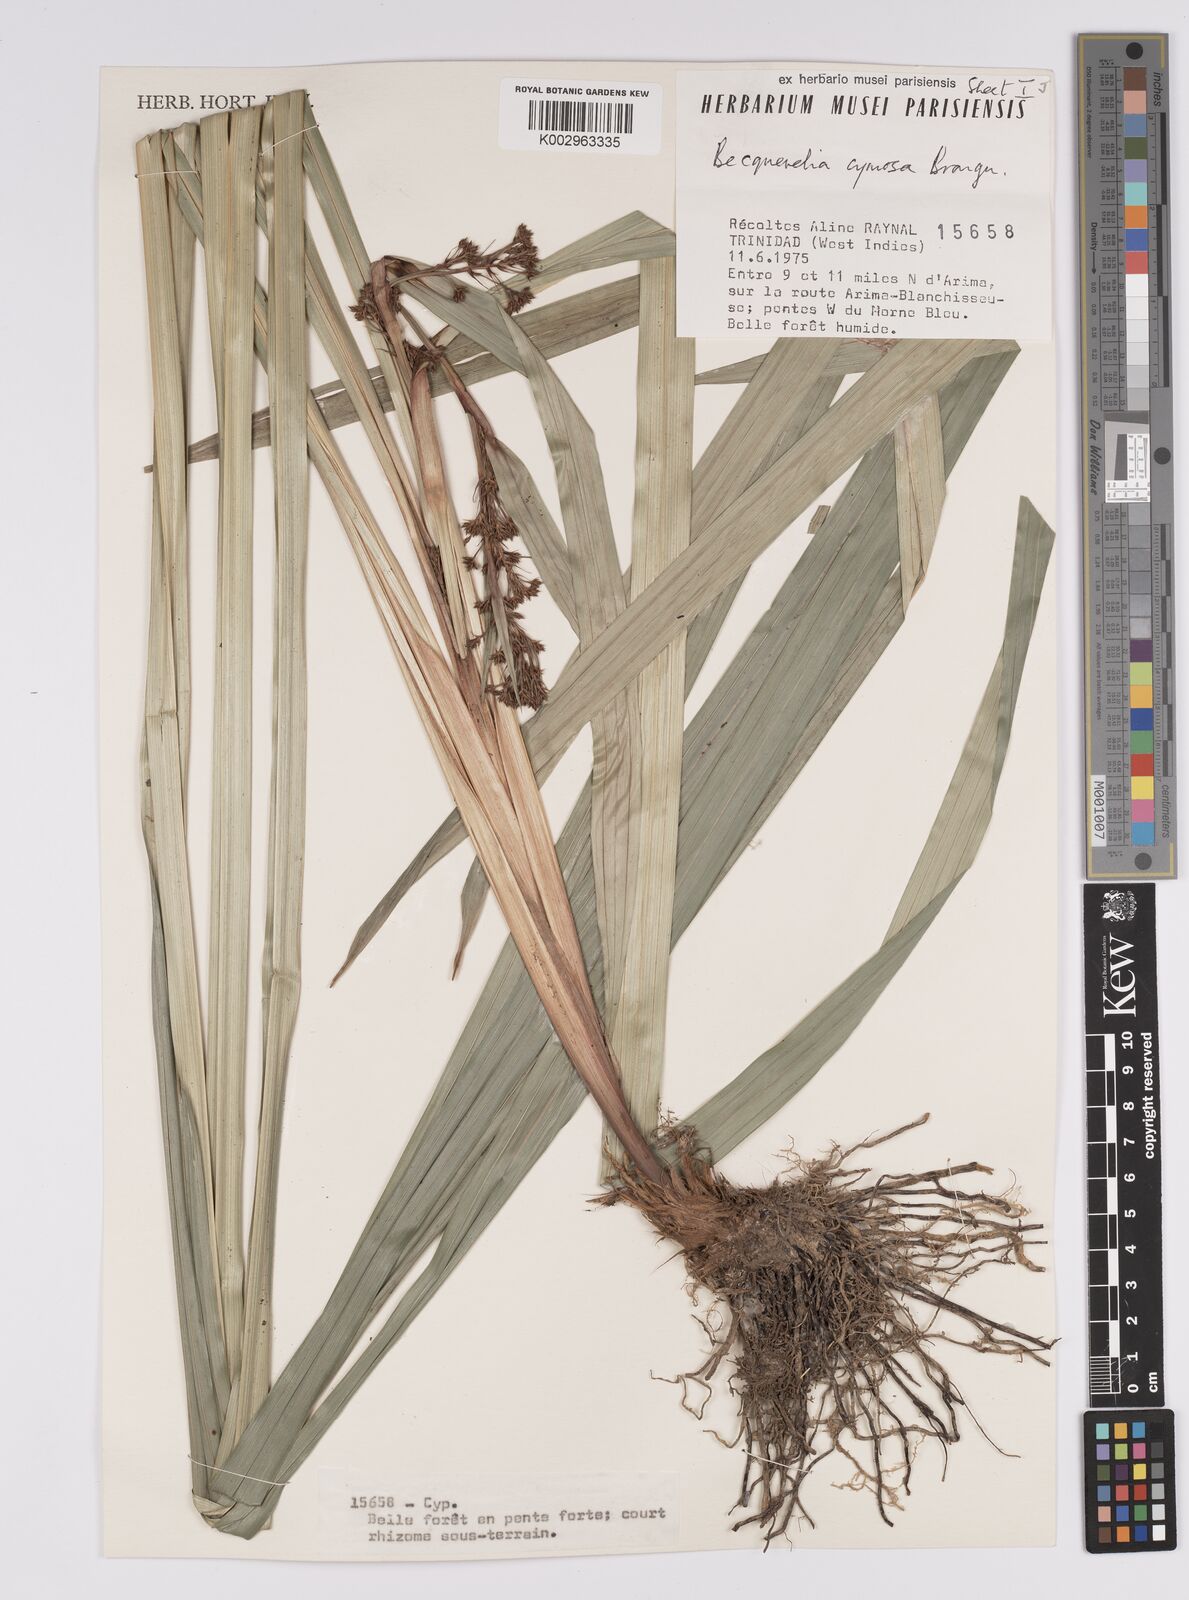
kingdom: Plantae
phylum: Tracheophyta
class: Liliopsida
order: Poales
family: Cyperaceae
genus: Becquerelia
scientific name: Becquerelia cymosa
